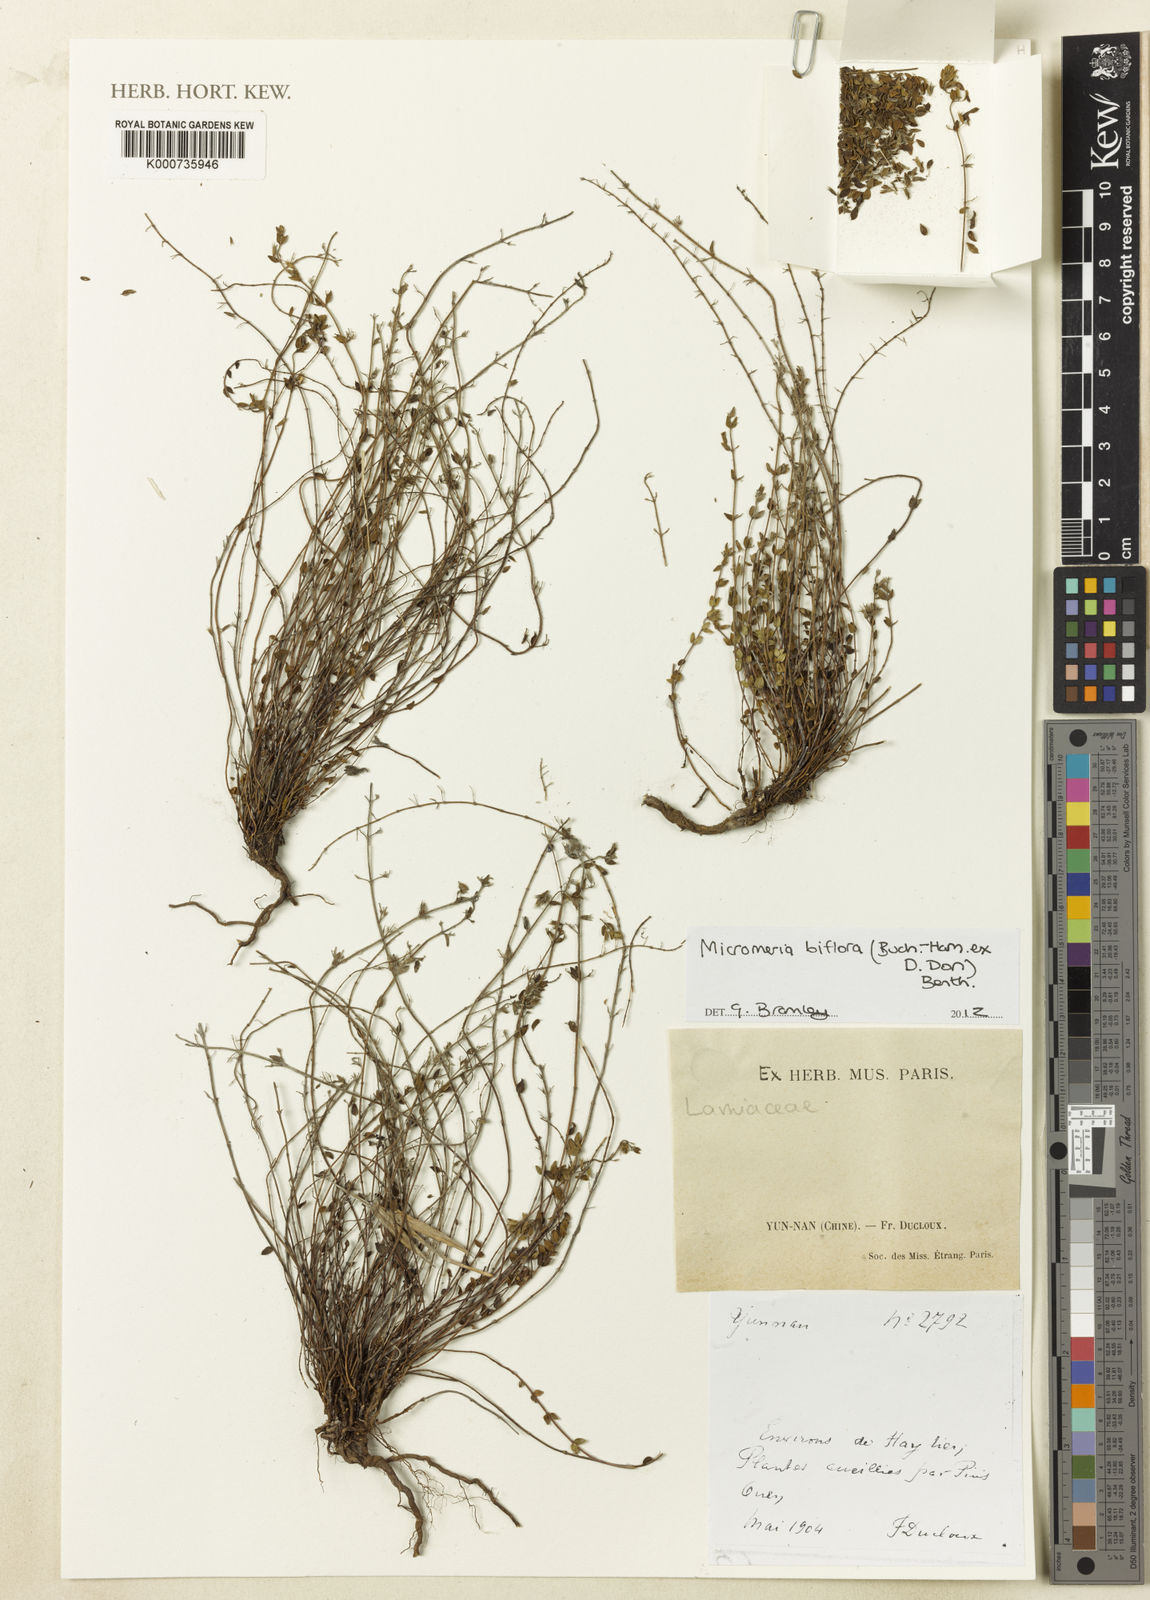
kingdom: Plantae
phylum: Tracheophyta
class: Magnoliopsida
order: Lamiales
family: Lamiaceae
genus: Micromeria
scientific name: Micromeria biflora
